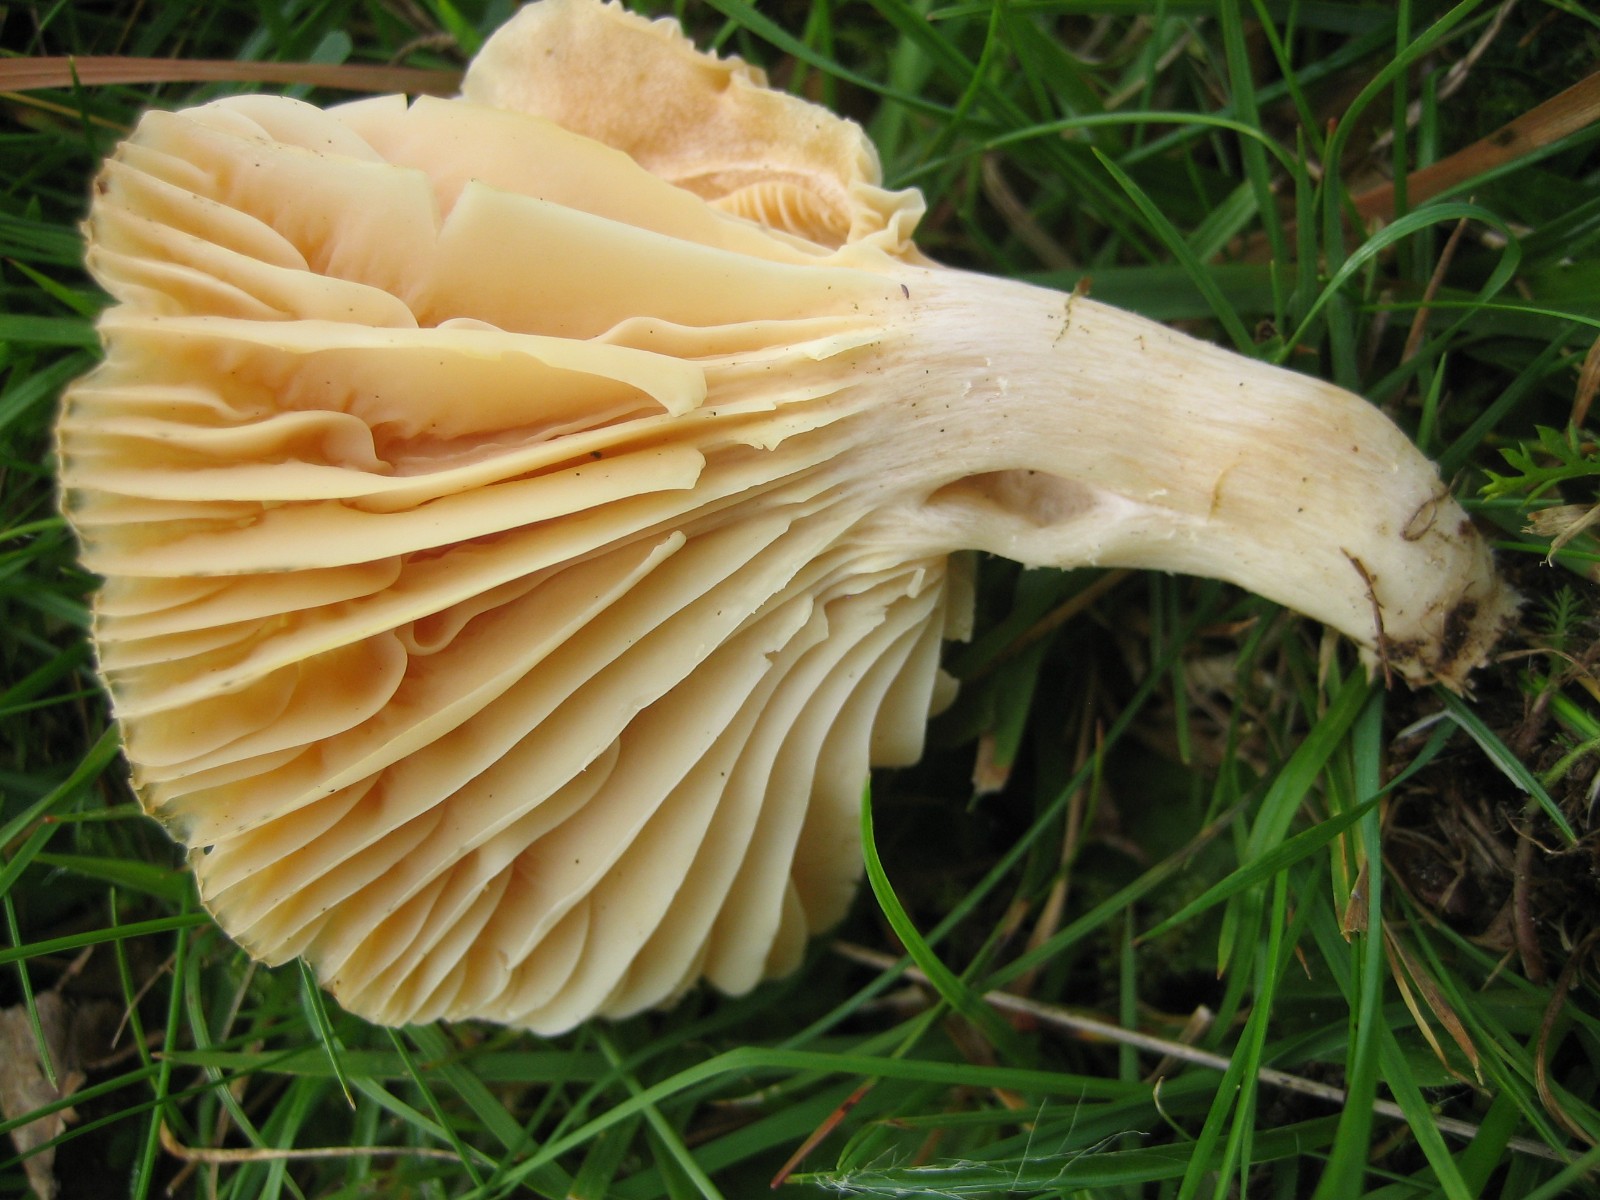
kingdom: Fungi
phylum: Basidiomycota
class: Agaricomycetes
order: Agaricales
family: Hygrophoraceae
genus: Cuphophyllus
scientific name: Cuphophyllus pratensis
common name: eng-vokshat
